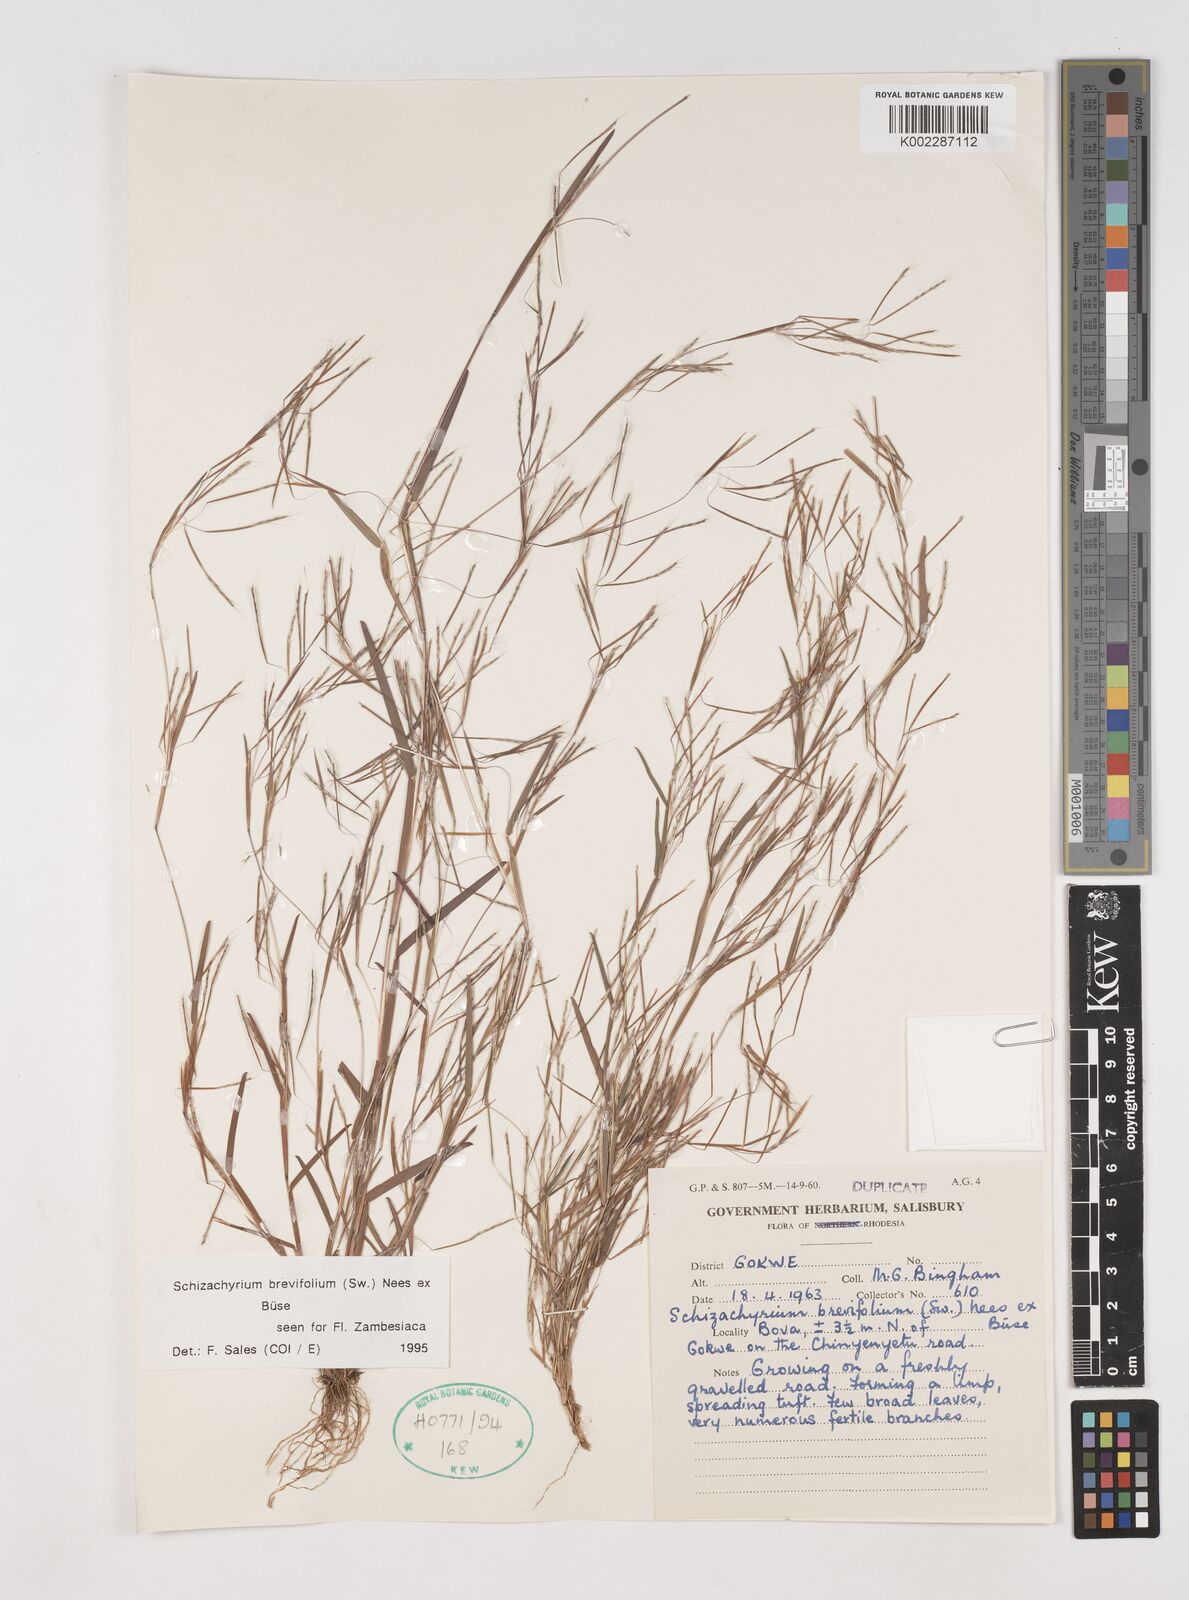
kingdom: Plantae
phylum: Tracheophyta
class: Liliopsida
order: Poales
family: Poaceae
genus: Schizachyrium
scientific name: Schizachyrium brevifolium
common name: Serillo dulce
